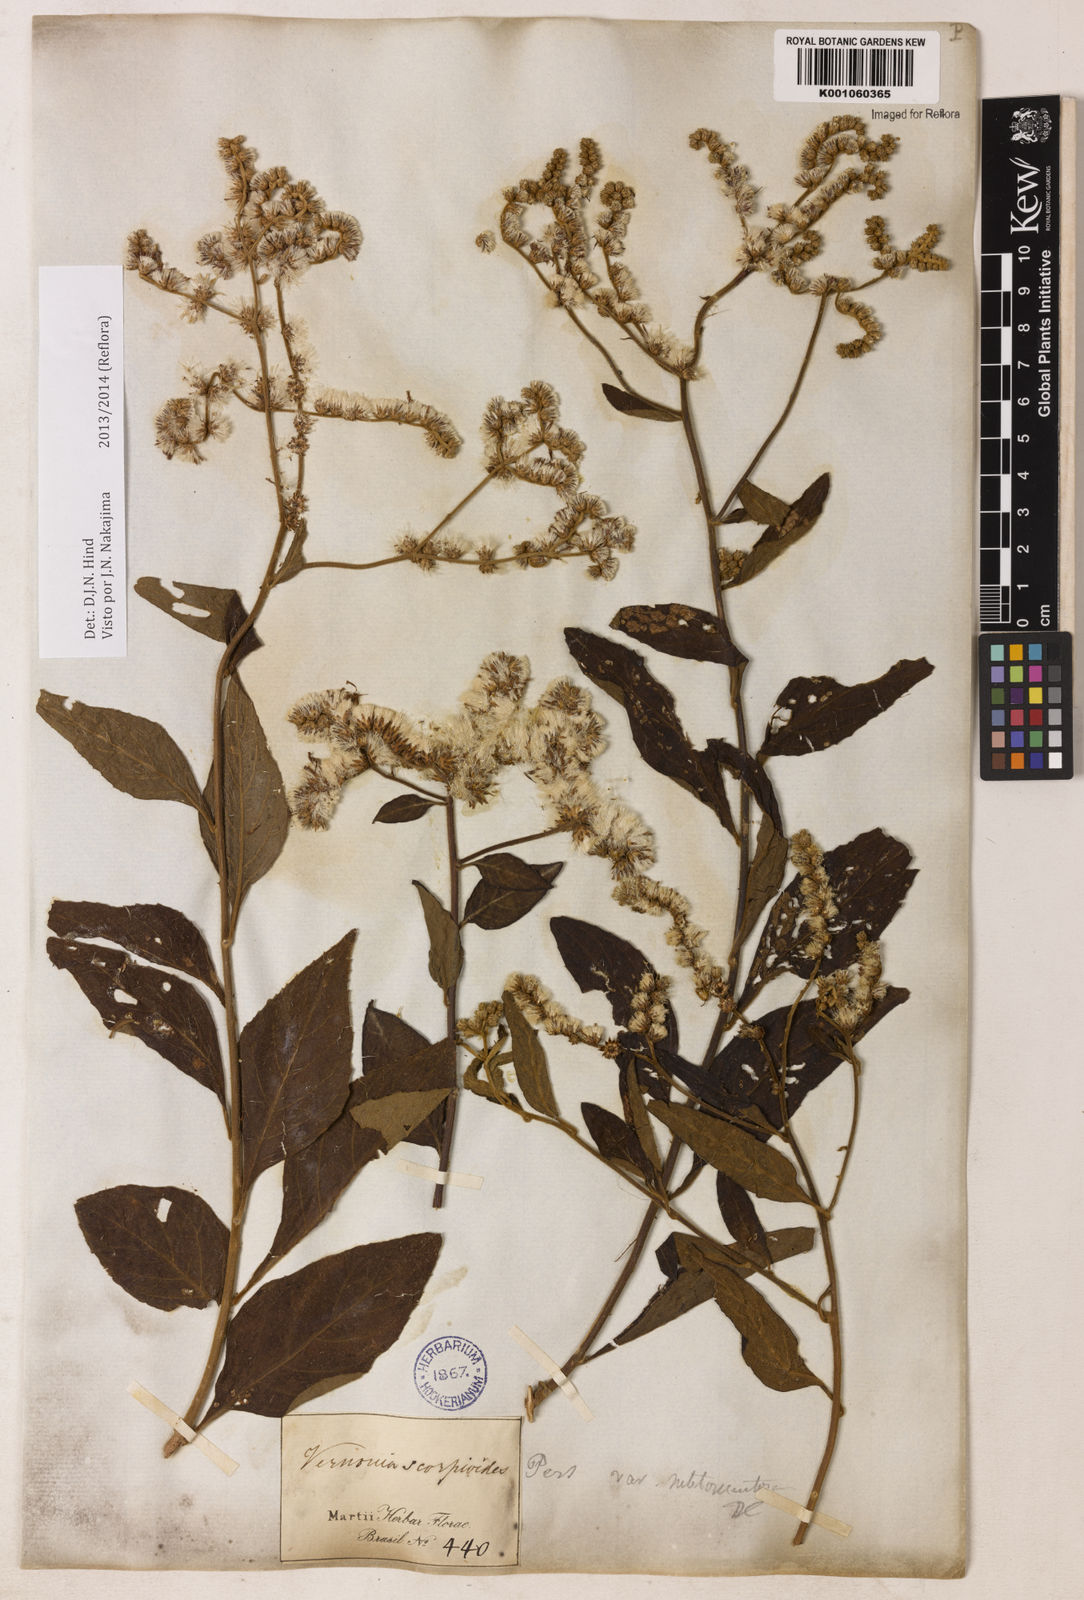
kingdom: Plantae
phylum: Tracheophyta
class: Magnoliopsida
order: Asterales
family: Asteraceae
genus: Cyrtocymura
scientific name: Cyrtocymura scorpioides
